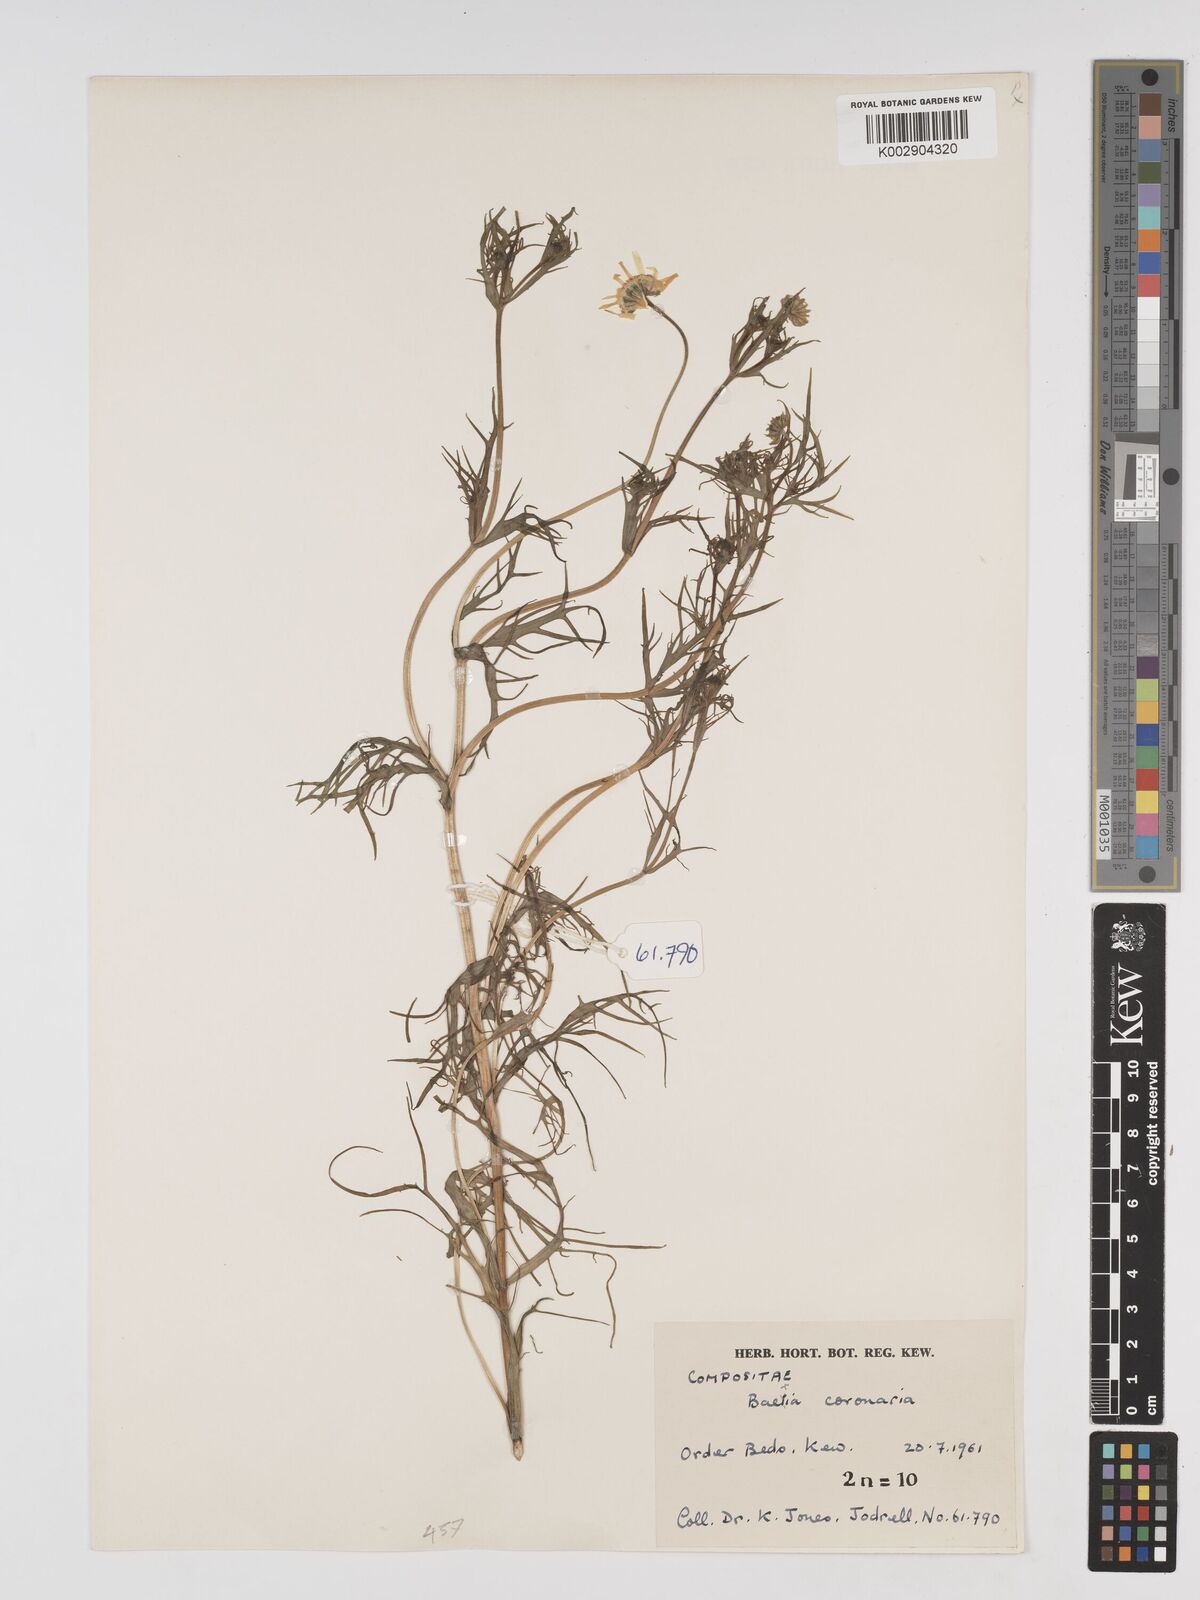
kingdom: Plantae
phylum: Tracheophyta
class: Magnoliopsida
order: Asterales
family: Asteraceae
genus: Lasthenia
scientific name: Lasthenia coronaria
